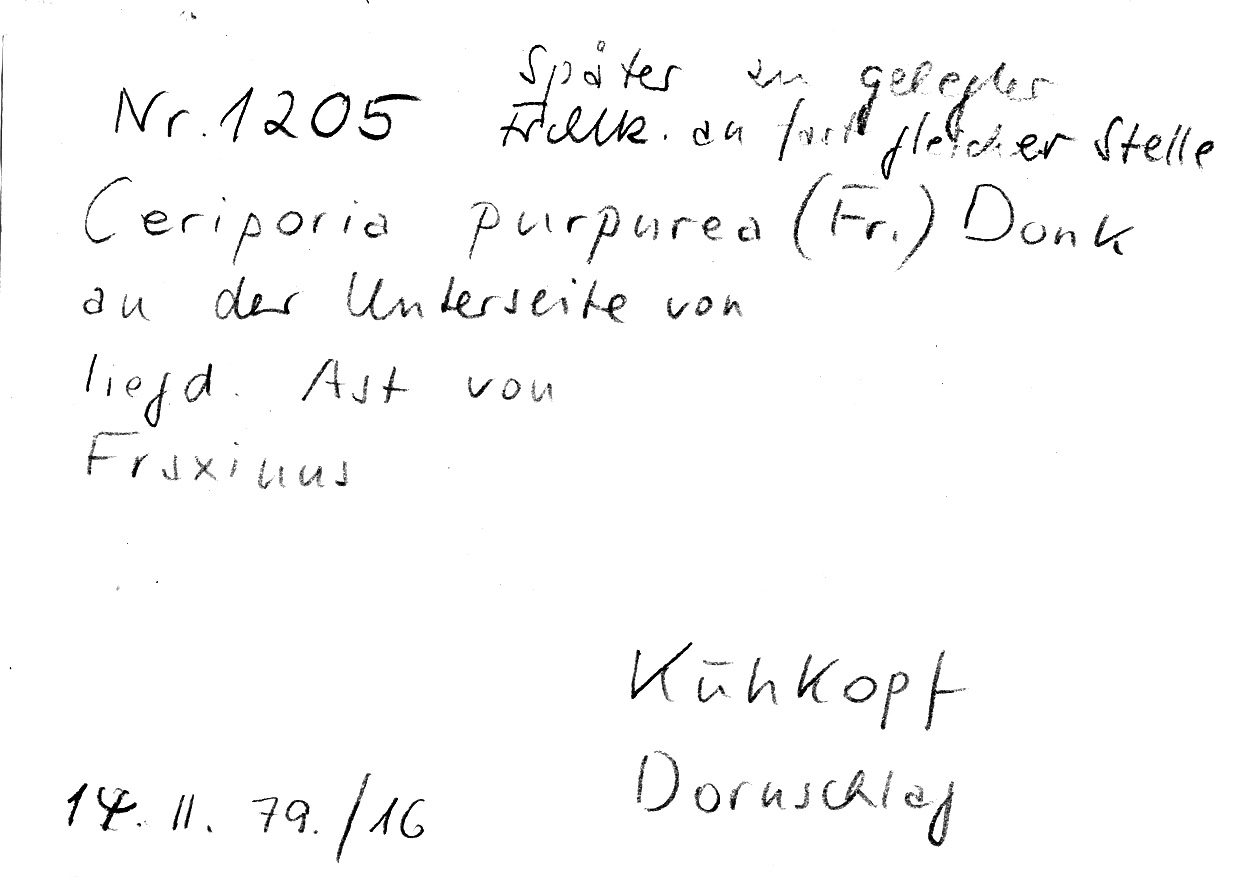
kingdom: Plantae
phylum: Tracheophyta
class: Magnoliopsida
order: Lamiales
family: Oleaceae
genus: Fraxinus
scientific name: Fraxinus
